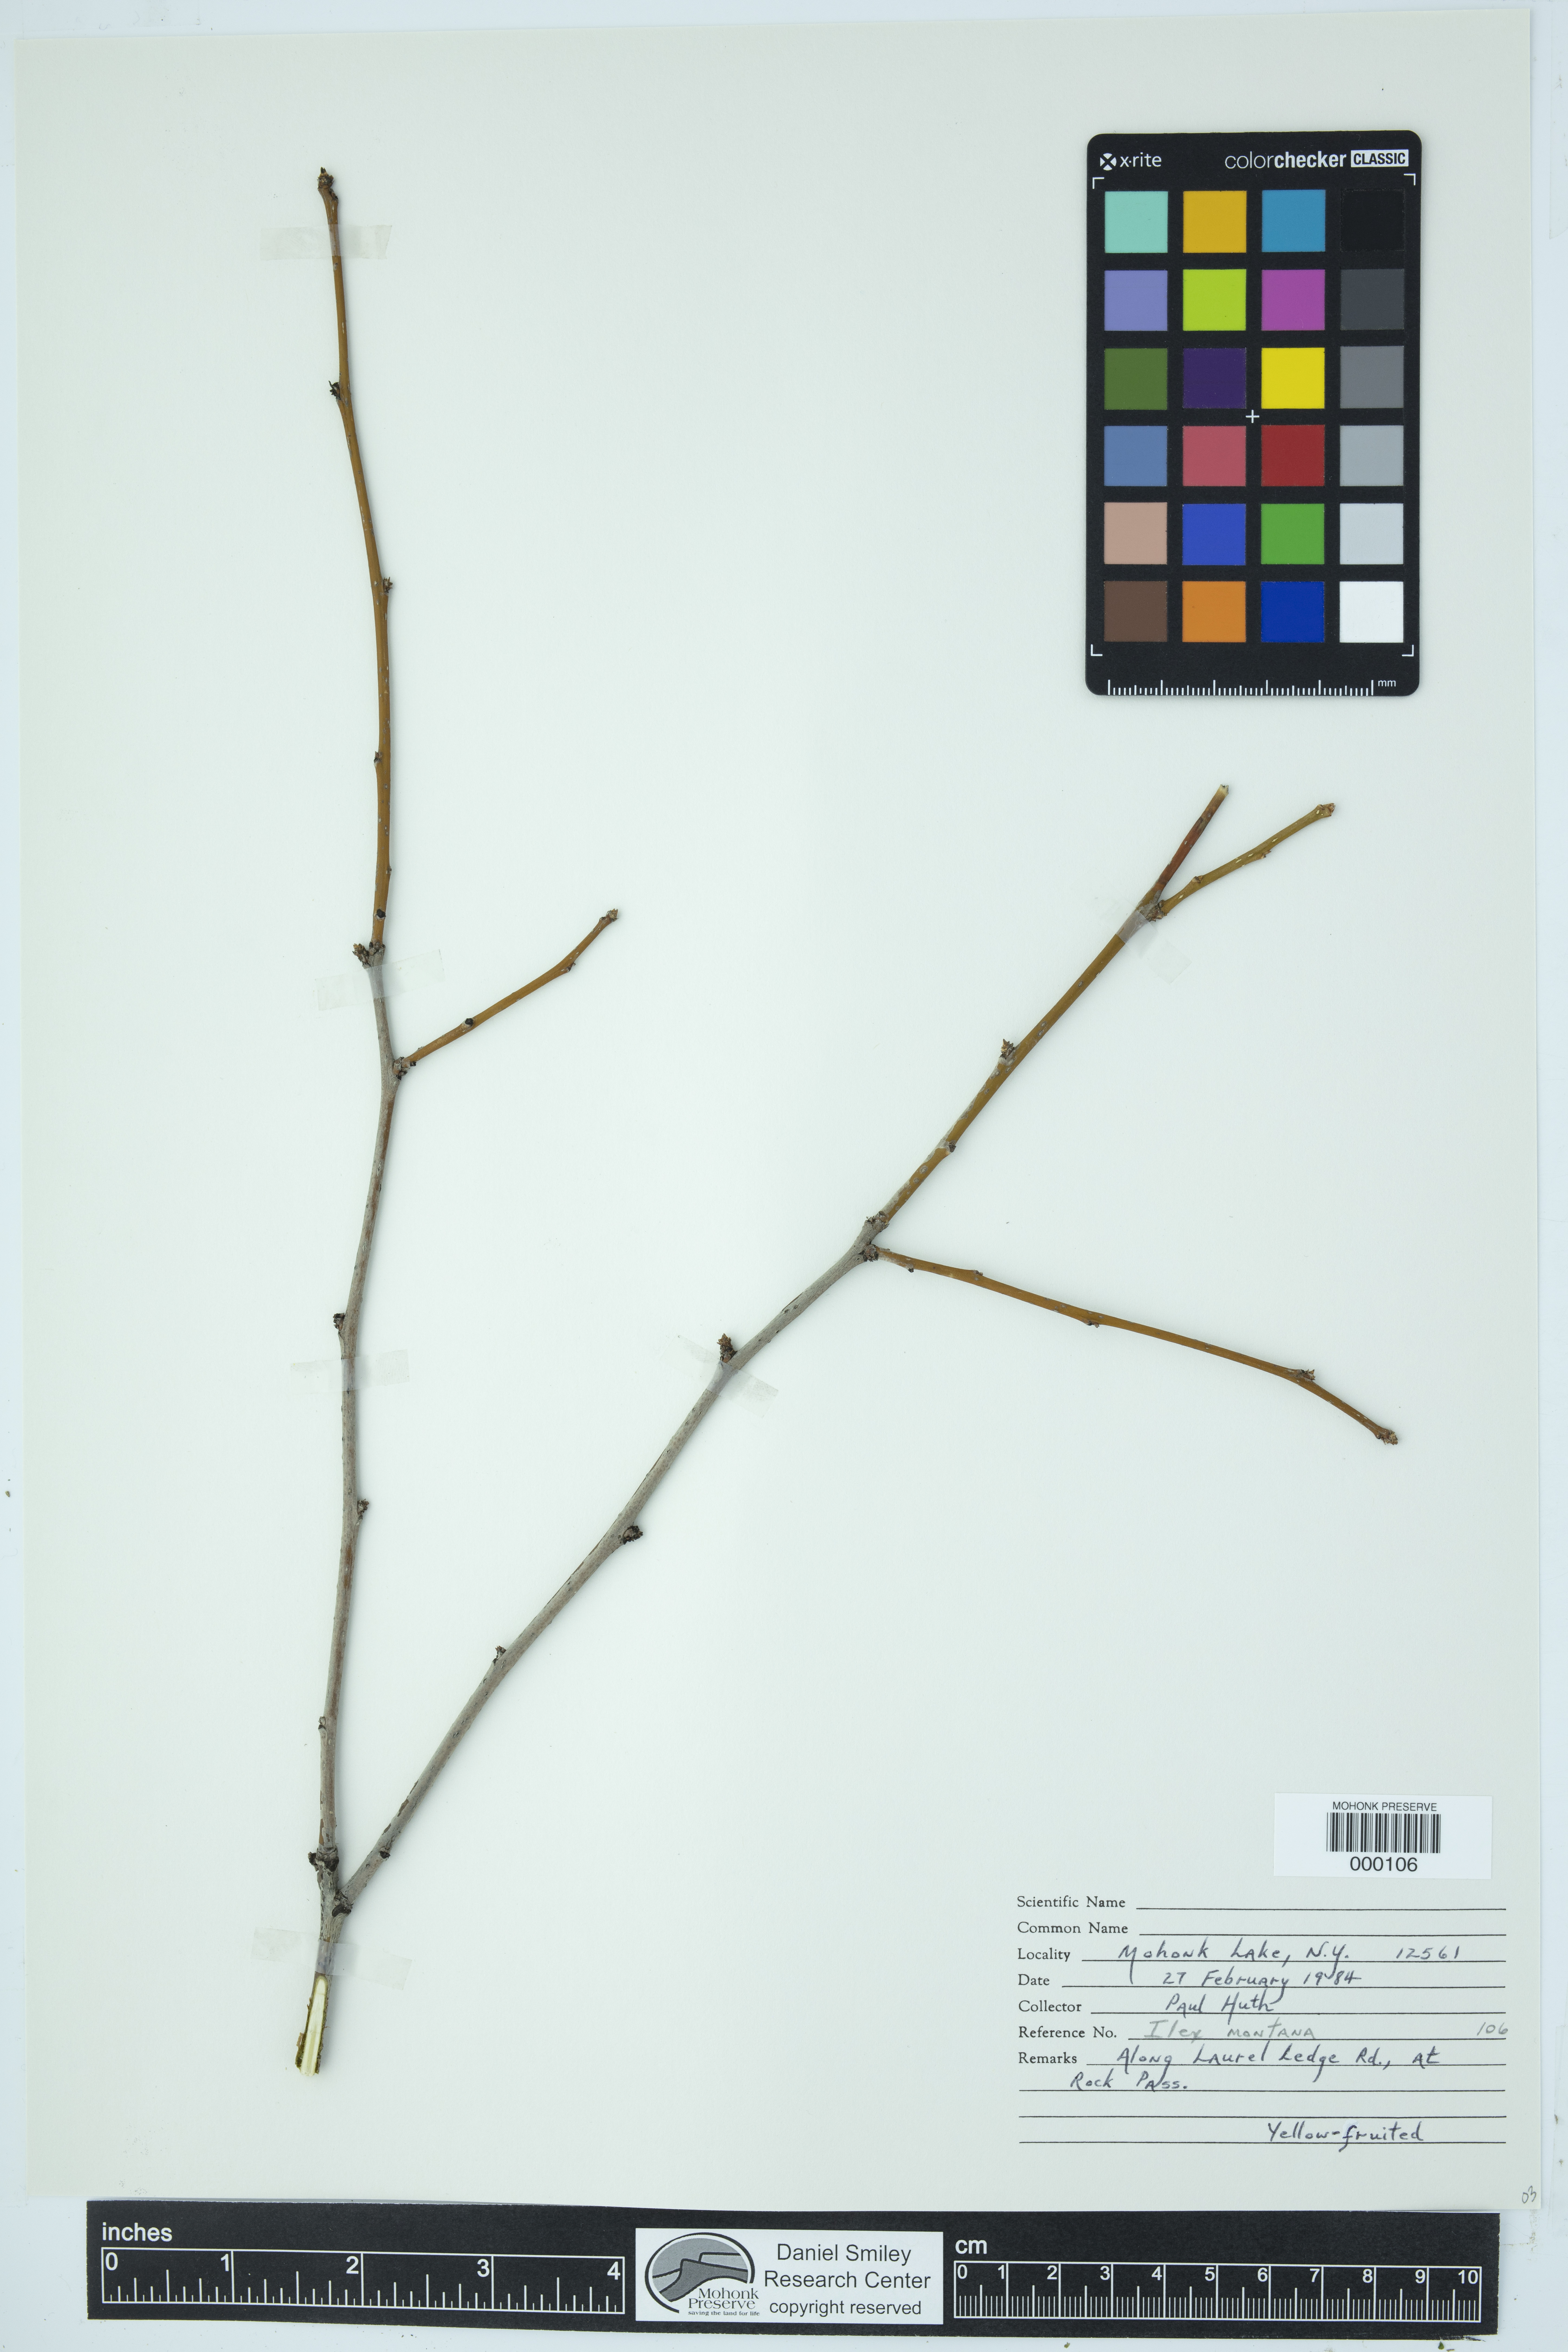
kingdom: Plantae
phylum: Tracheophyta
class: Magnoliopsida
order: Aquifoliales
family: Aquifoliaceae
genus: Ilex
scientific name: Ilex montana
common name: Mountain winterberry
